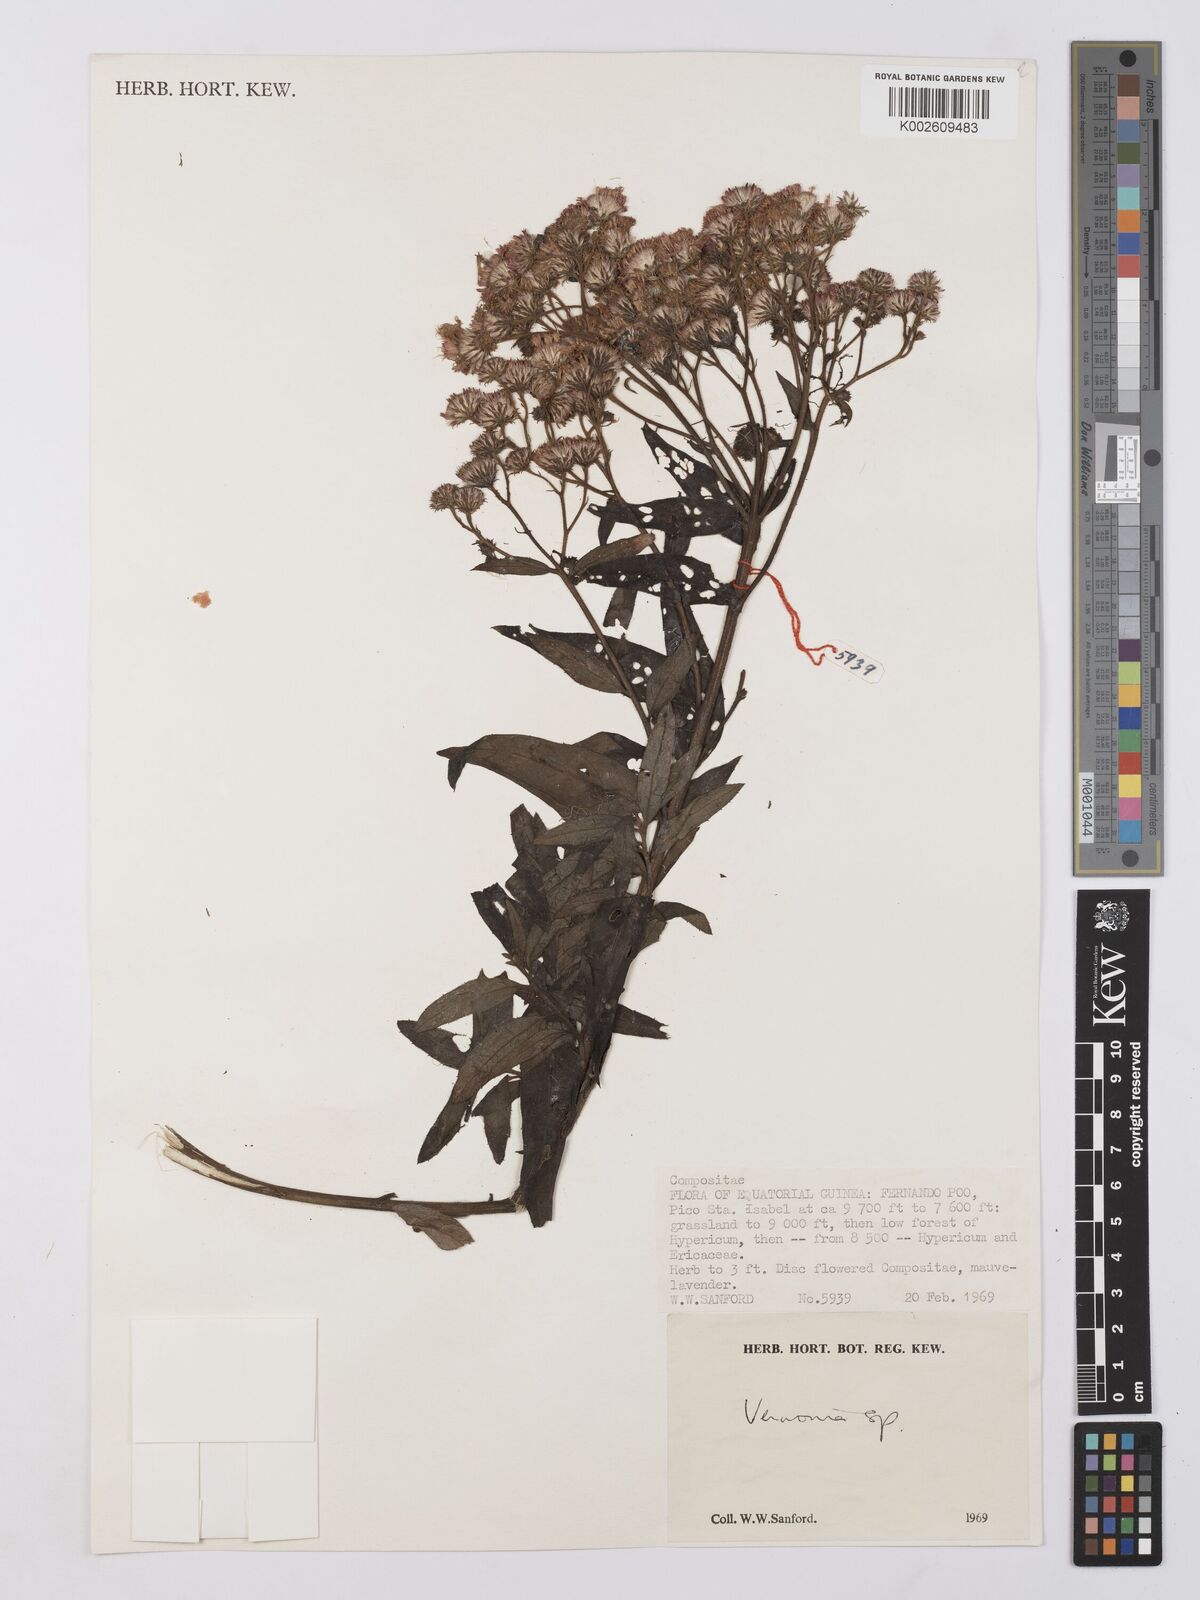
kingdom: Plantae
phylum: Tracheophyta
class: Magnoliopsida
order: Asterales
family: Asteraceae
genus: Vernonia
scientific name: Vernonia
